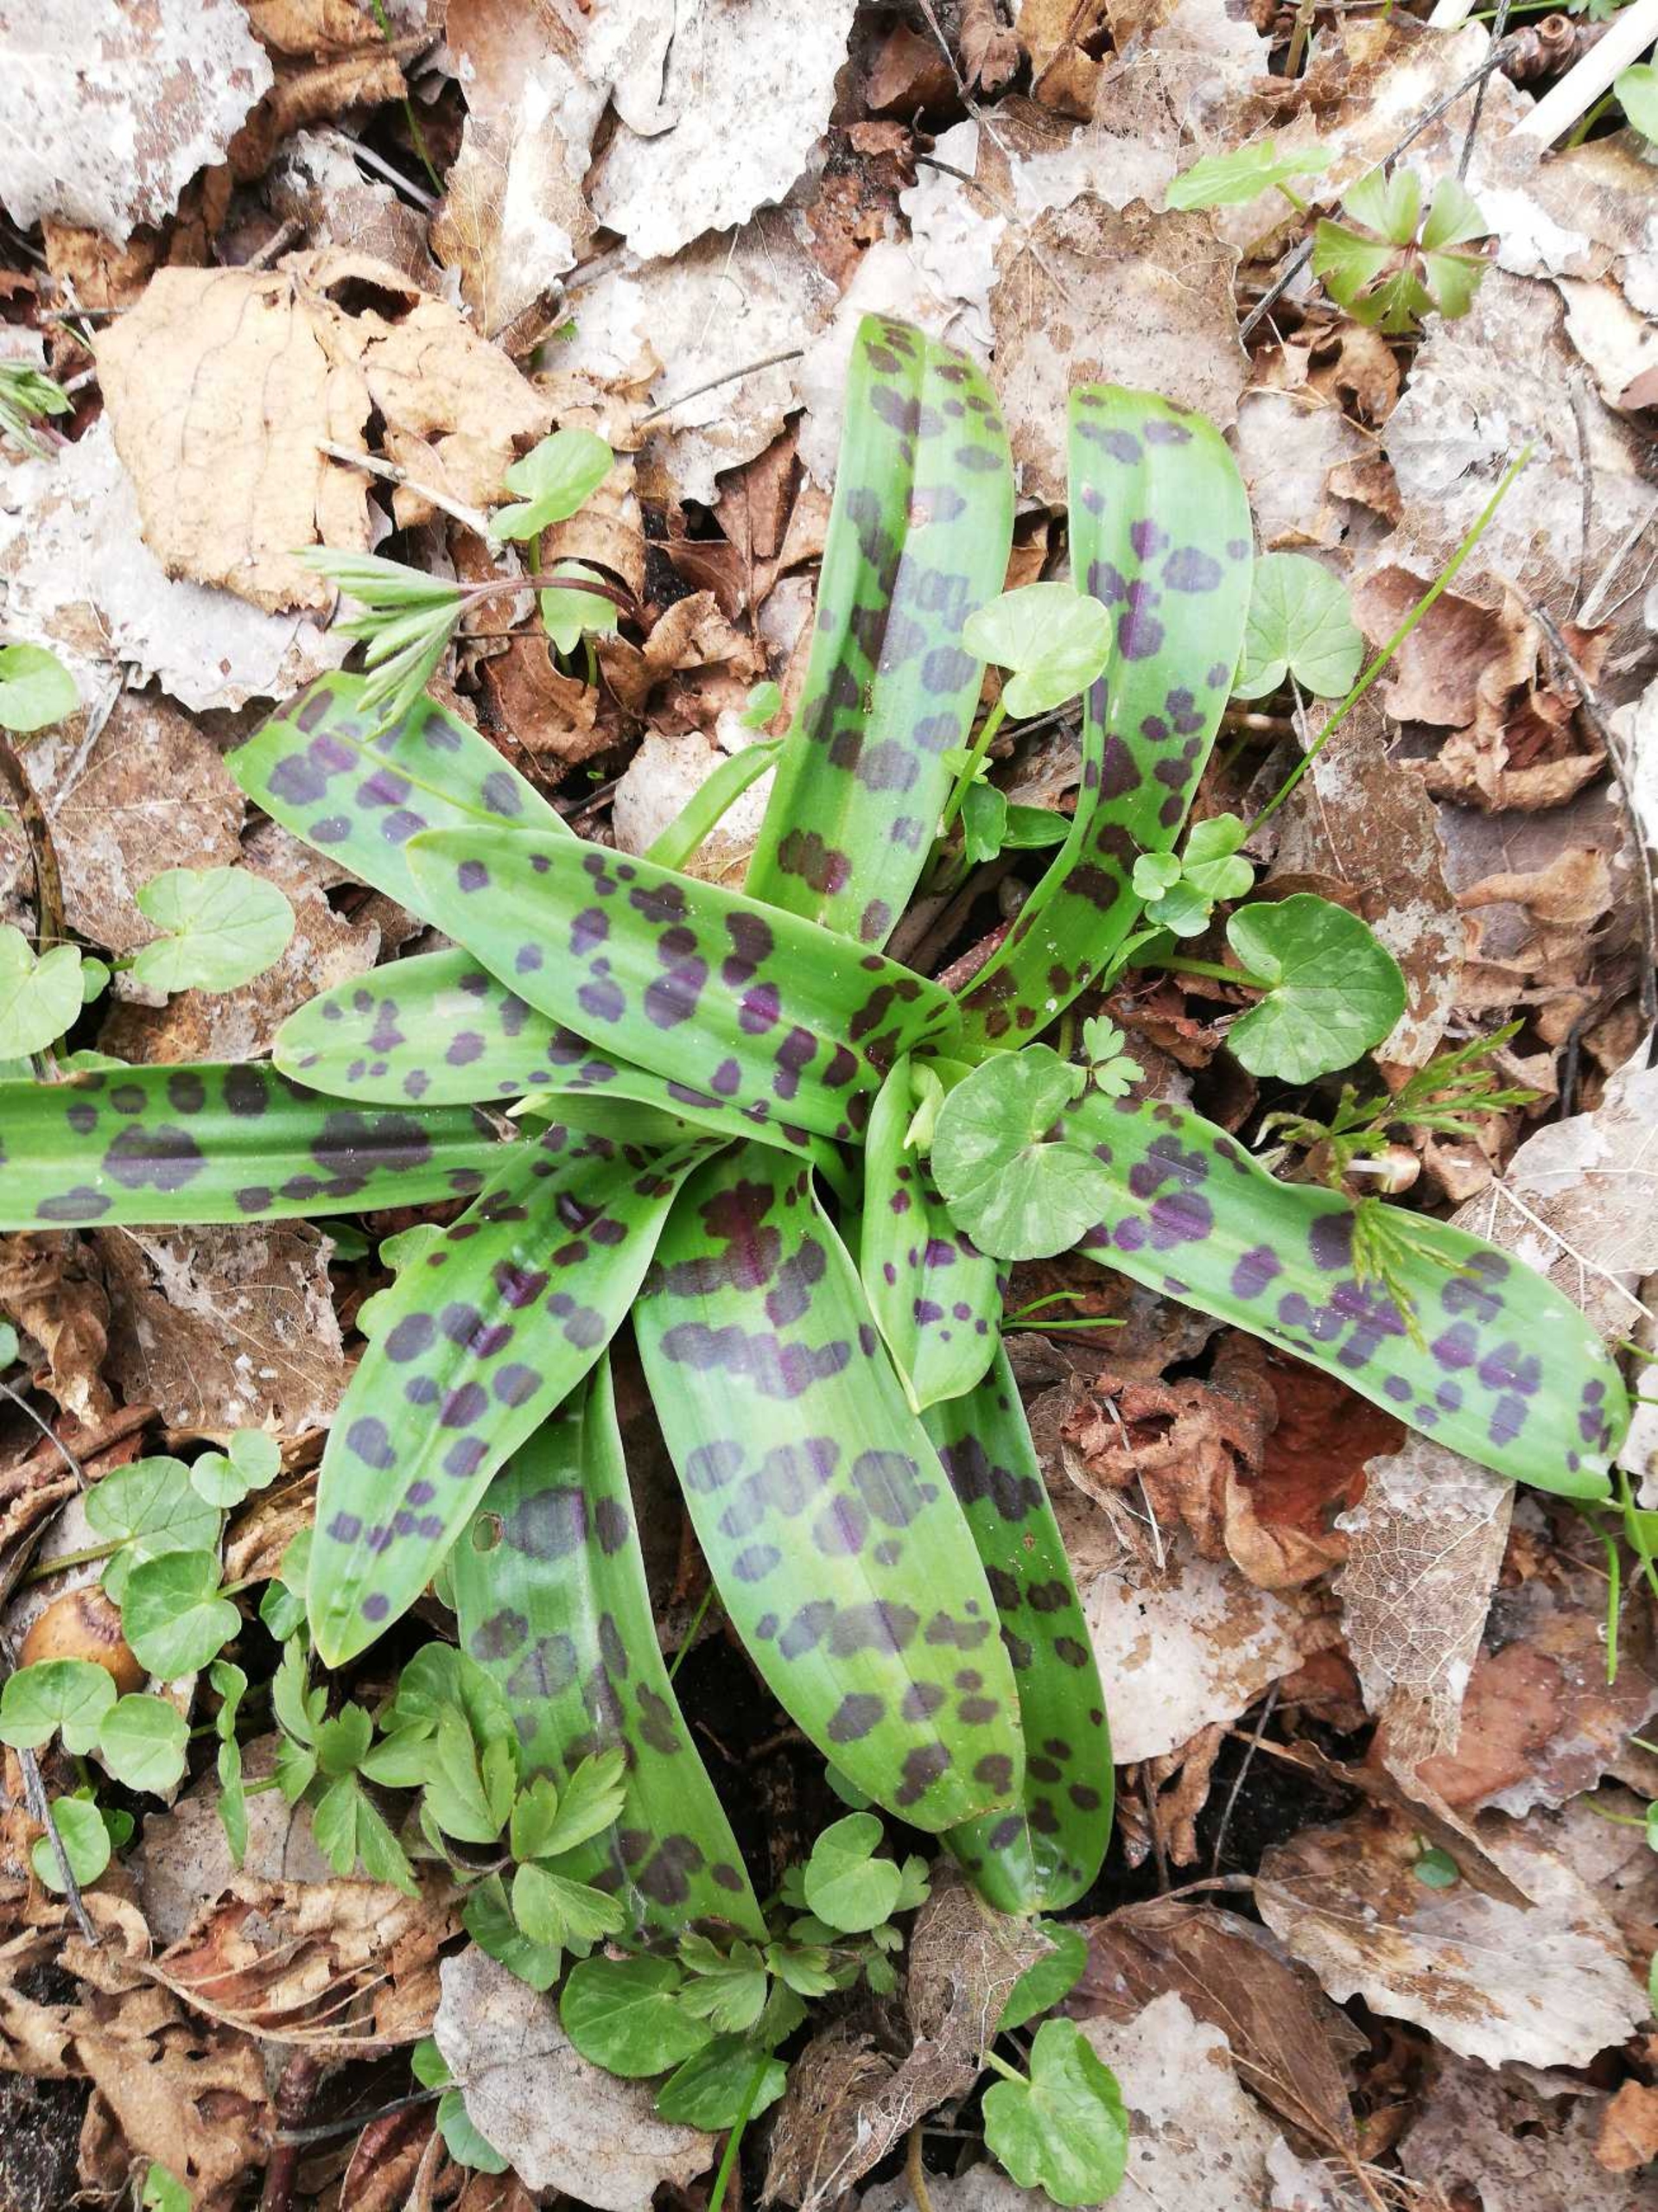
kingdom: Plantae
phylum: Tracheophyta
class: Liliopsida
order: Asparagales
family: Orchidaceae
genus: Orchis
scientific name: Orchis mascula
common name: Tyndakset gøgeurt
